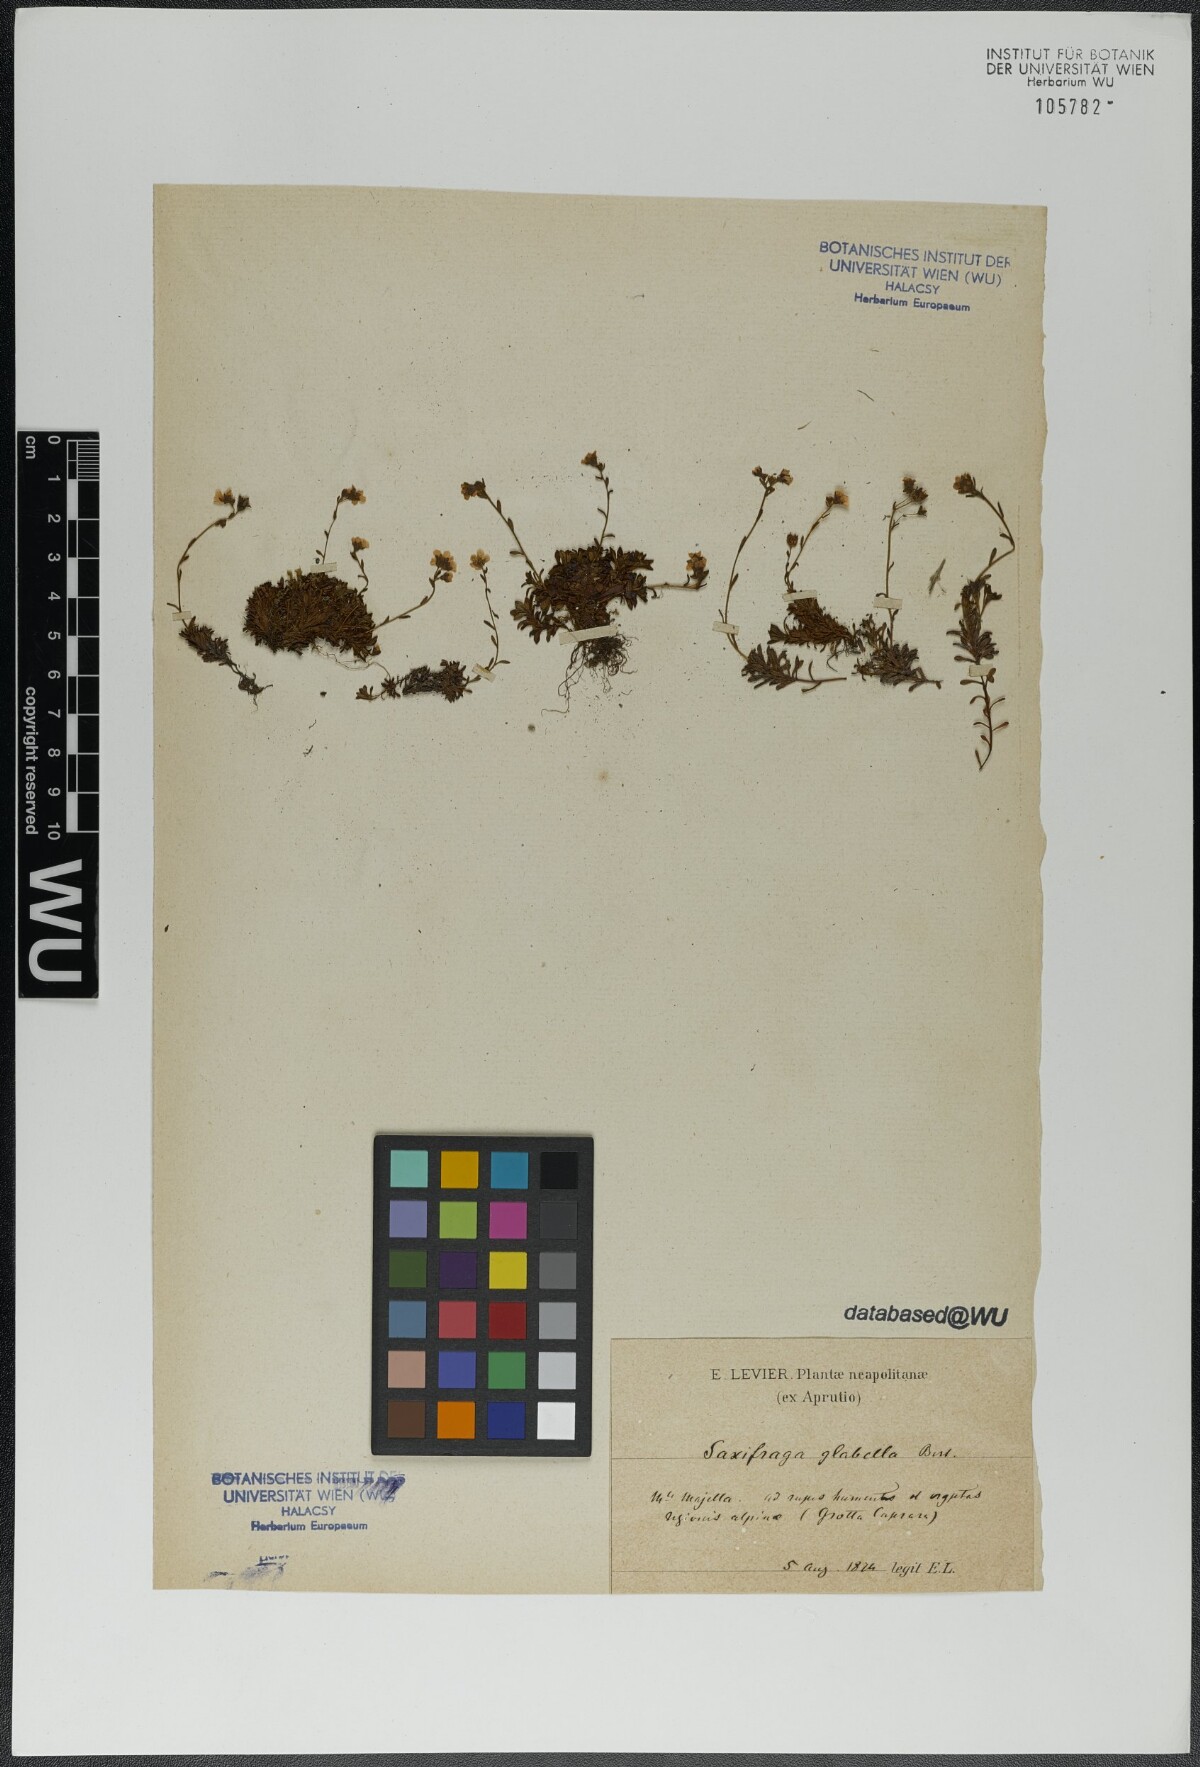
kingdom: Plantae
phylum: Tracheophyta
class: Magnoliopsida
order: Saxifragales
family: Saxifragaceae
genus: Saxifraga
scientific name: Saxifraga glabella
